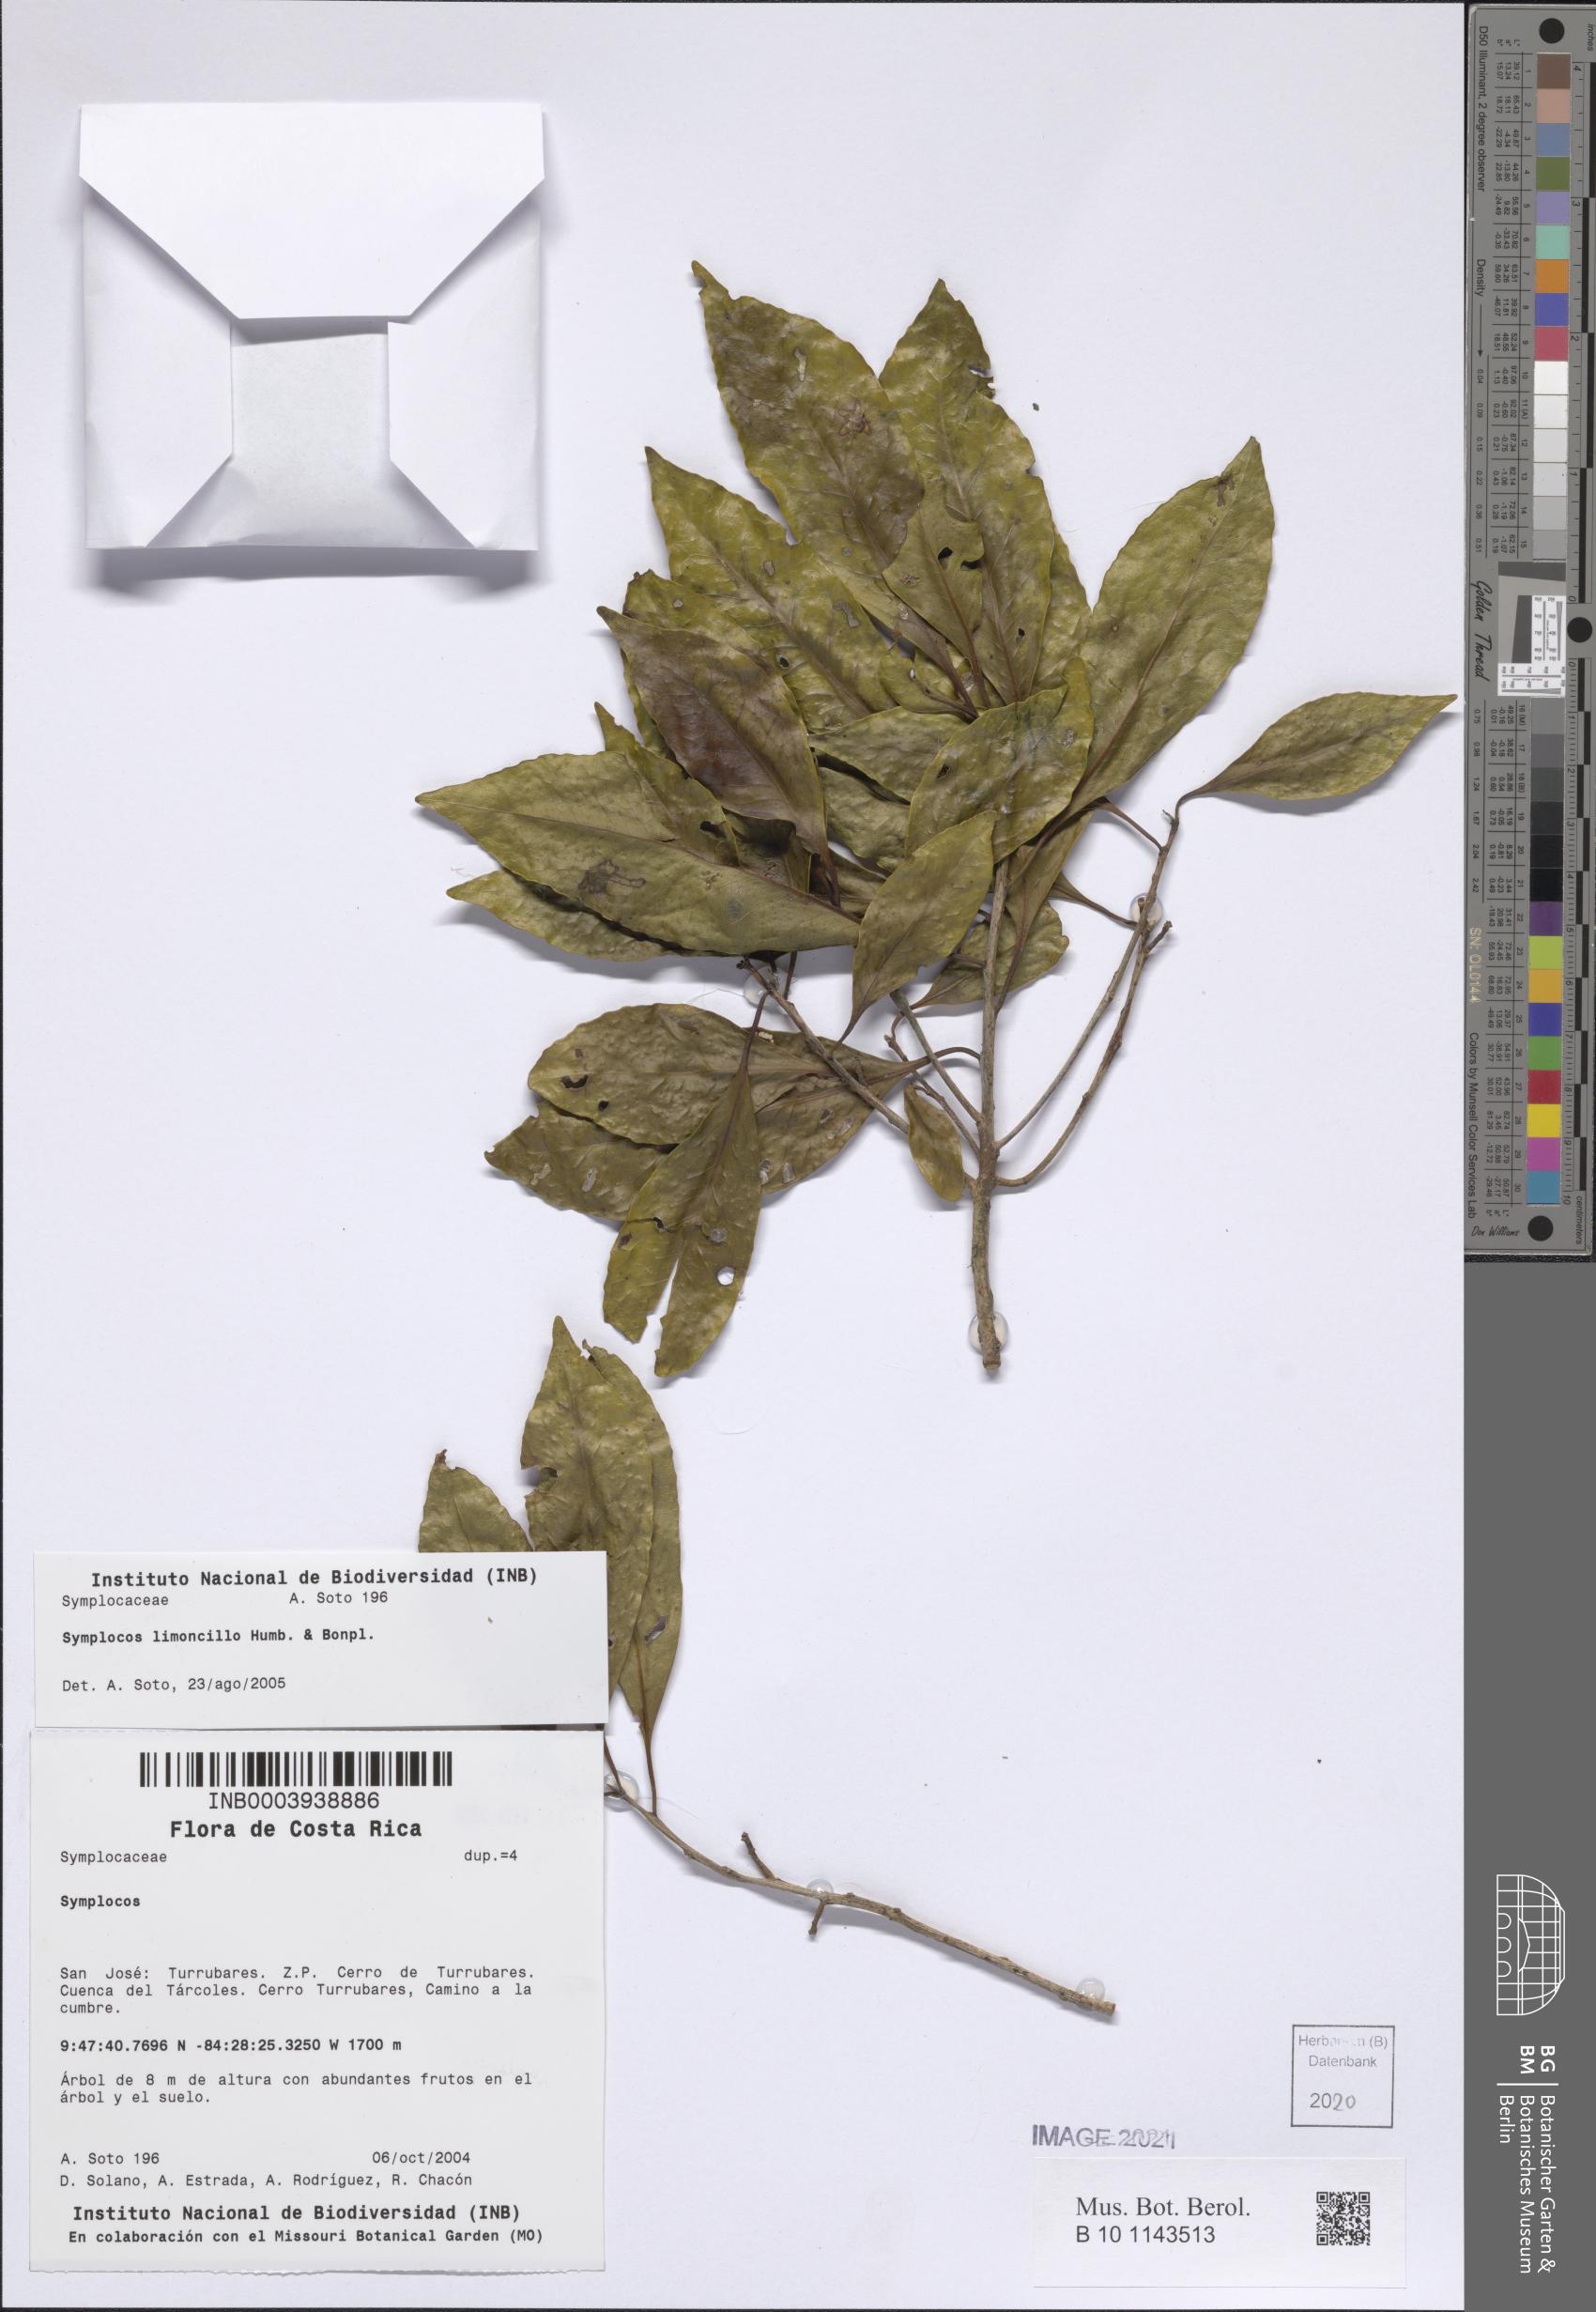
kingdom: Plantae
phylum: Tracheophyta
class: Magnoliopsida
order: Ericales
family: Symplocaceae
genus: Symplocos
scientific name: Symplocos limoncillo
